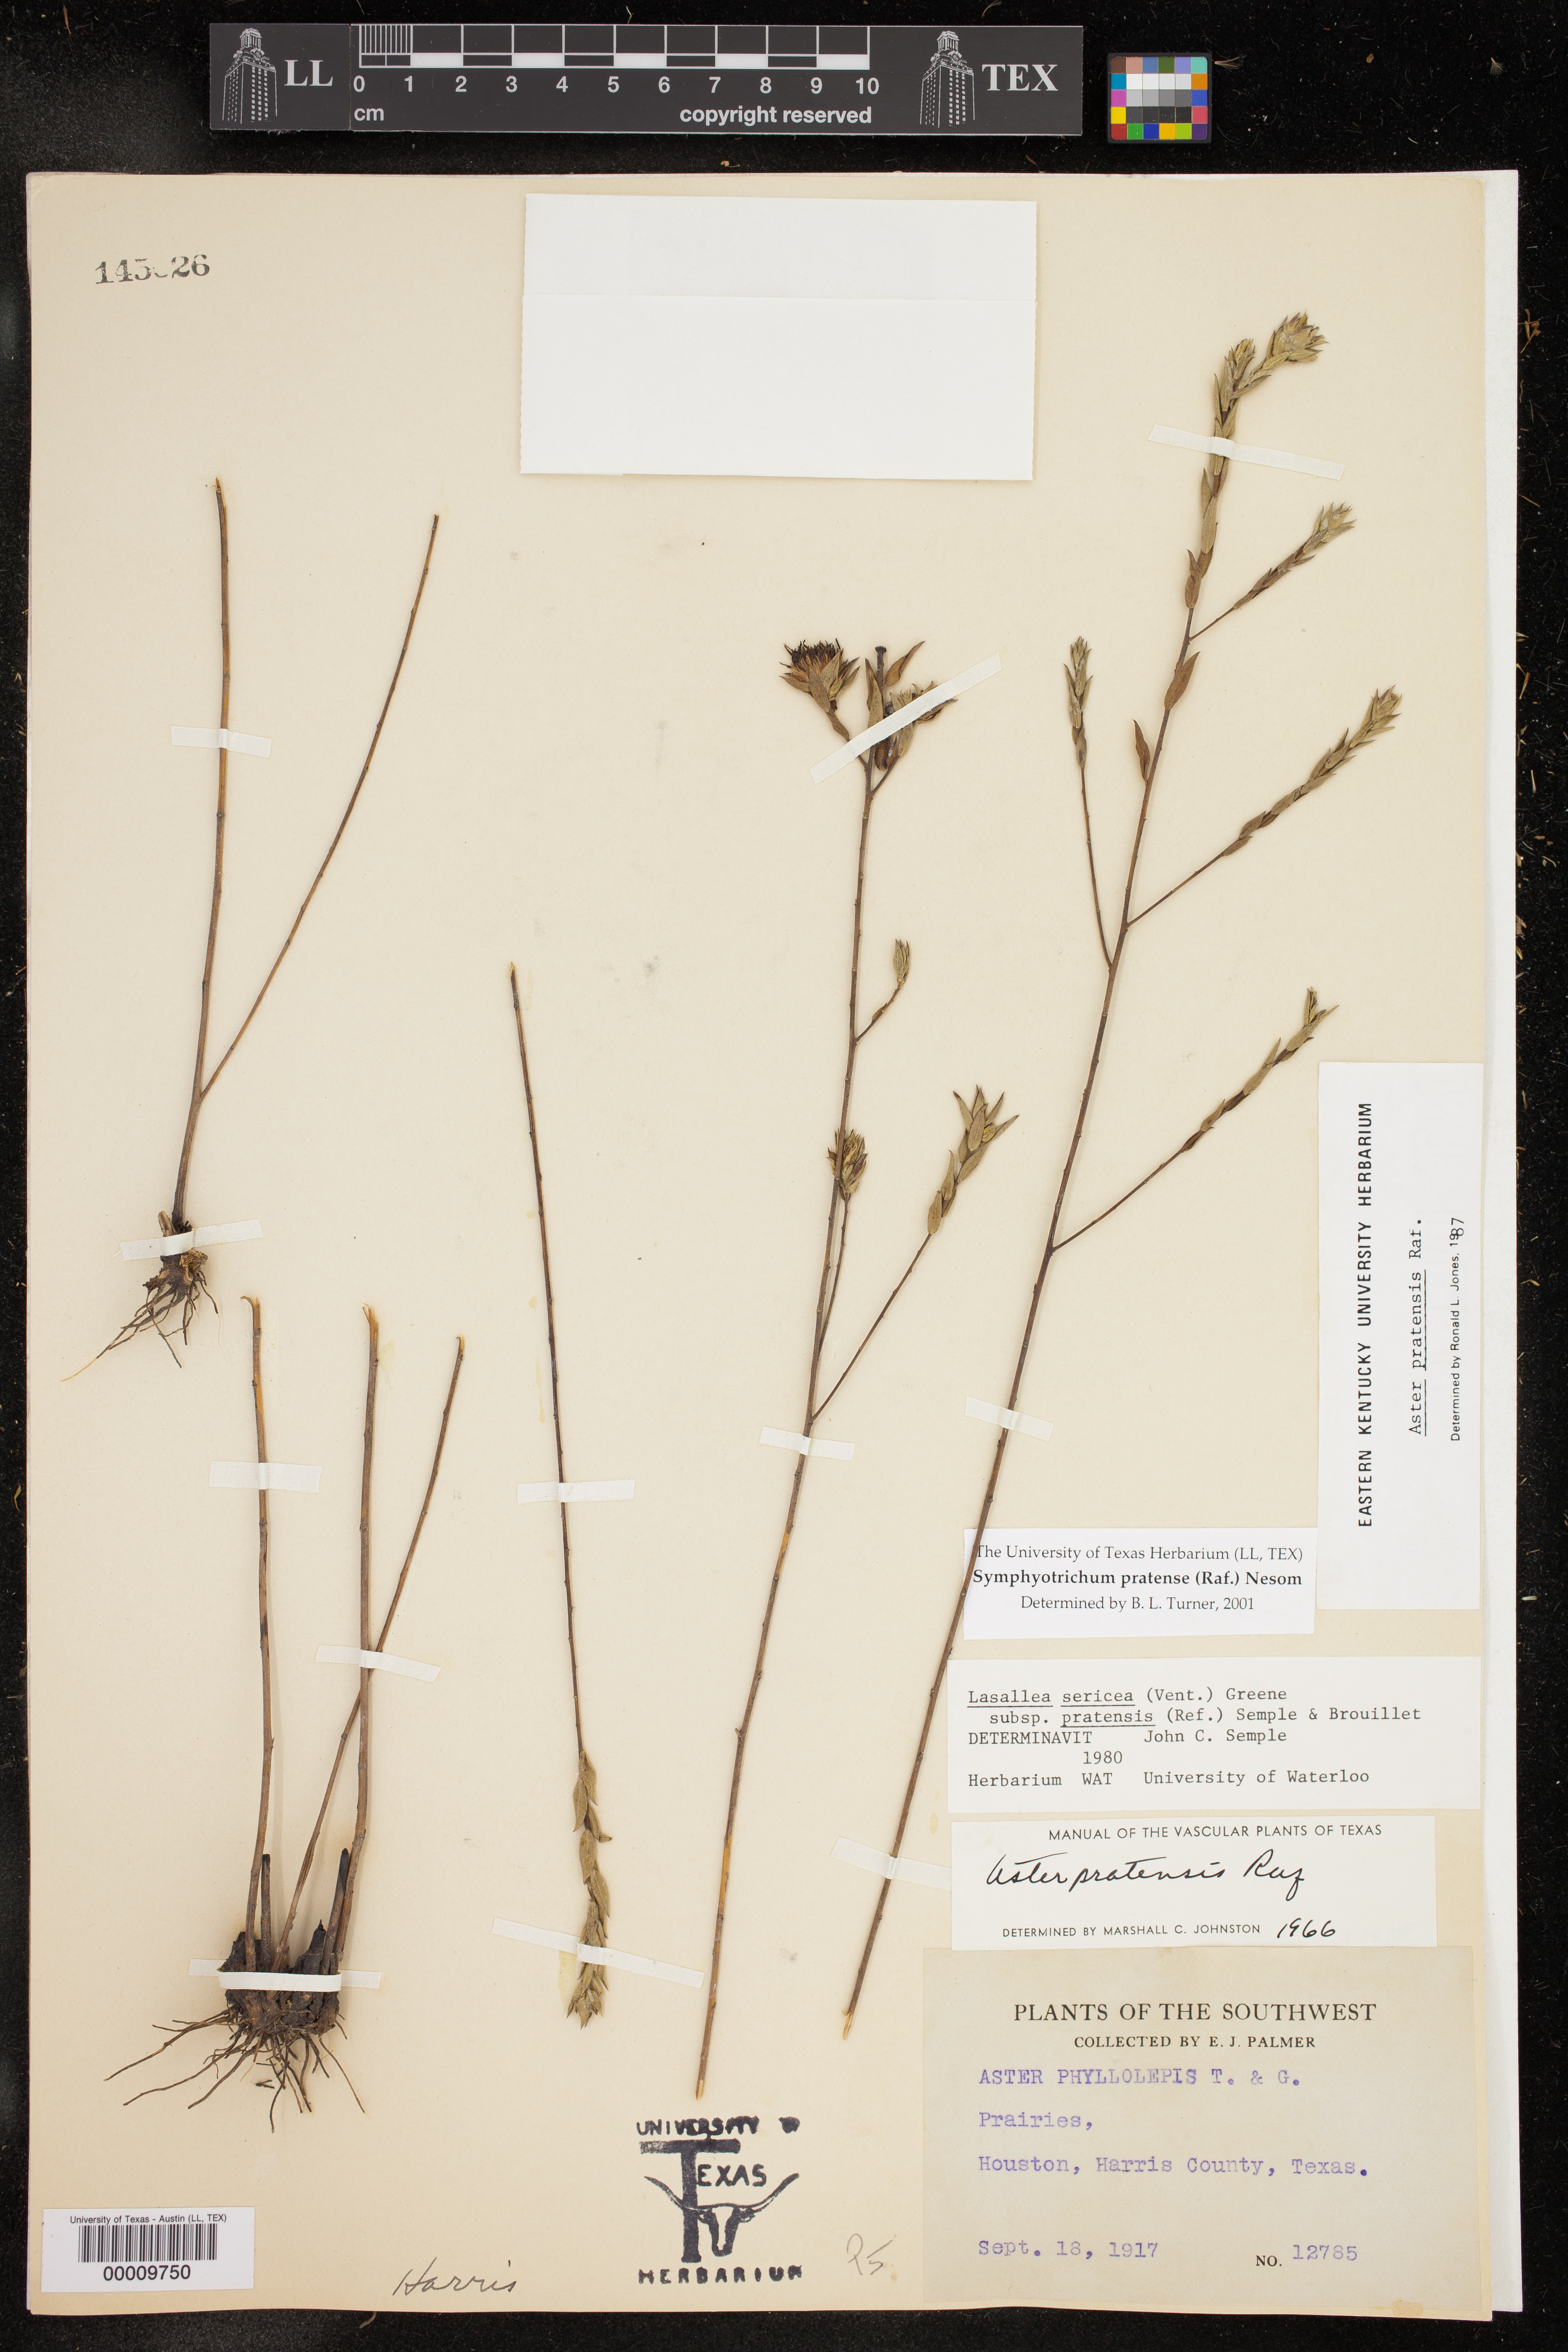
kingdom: Plantae
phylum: Tracheophyta
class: Magnoliopsida
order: Asterales
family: Asteraceae
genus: Symphyotrichum
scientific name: Symphyotrichum pratense
